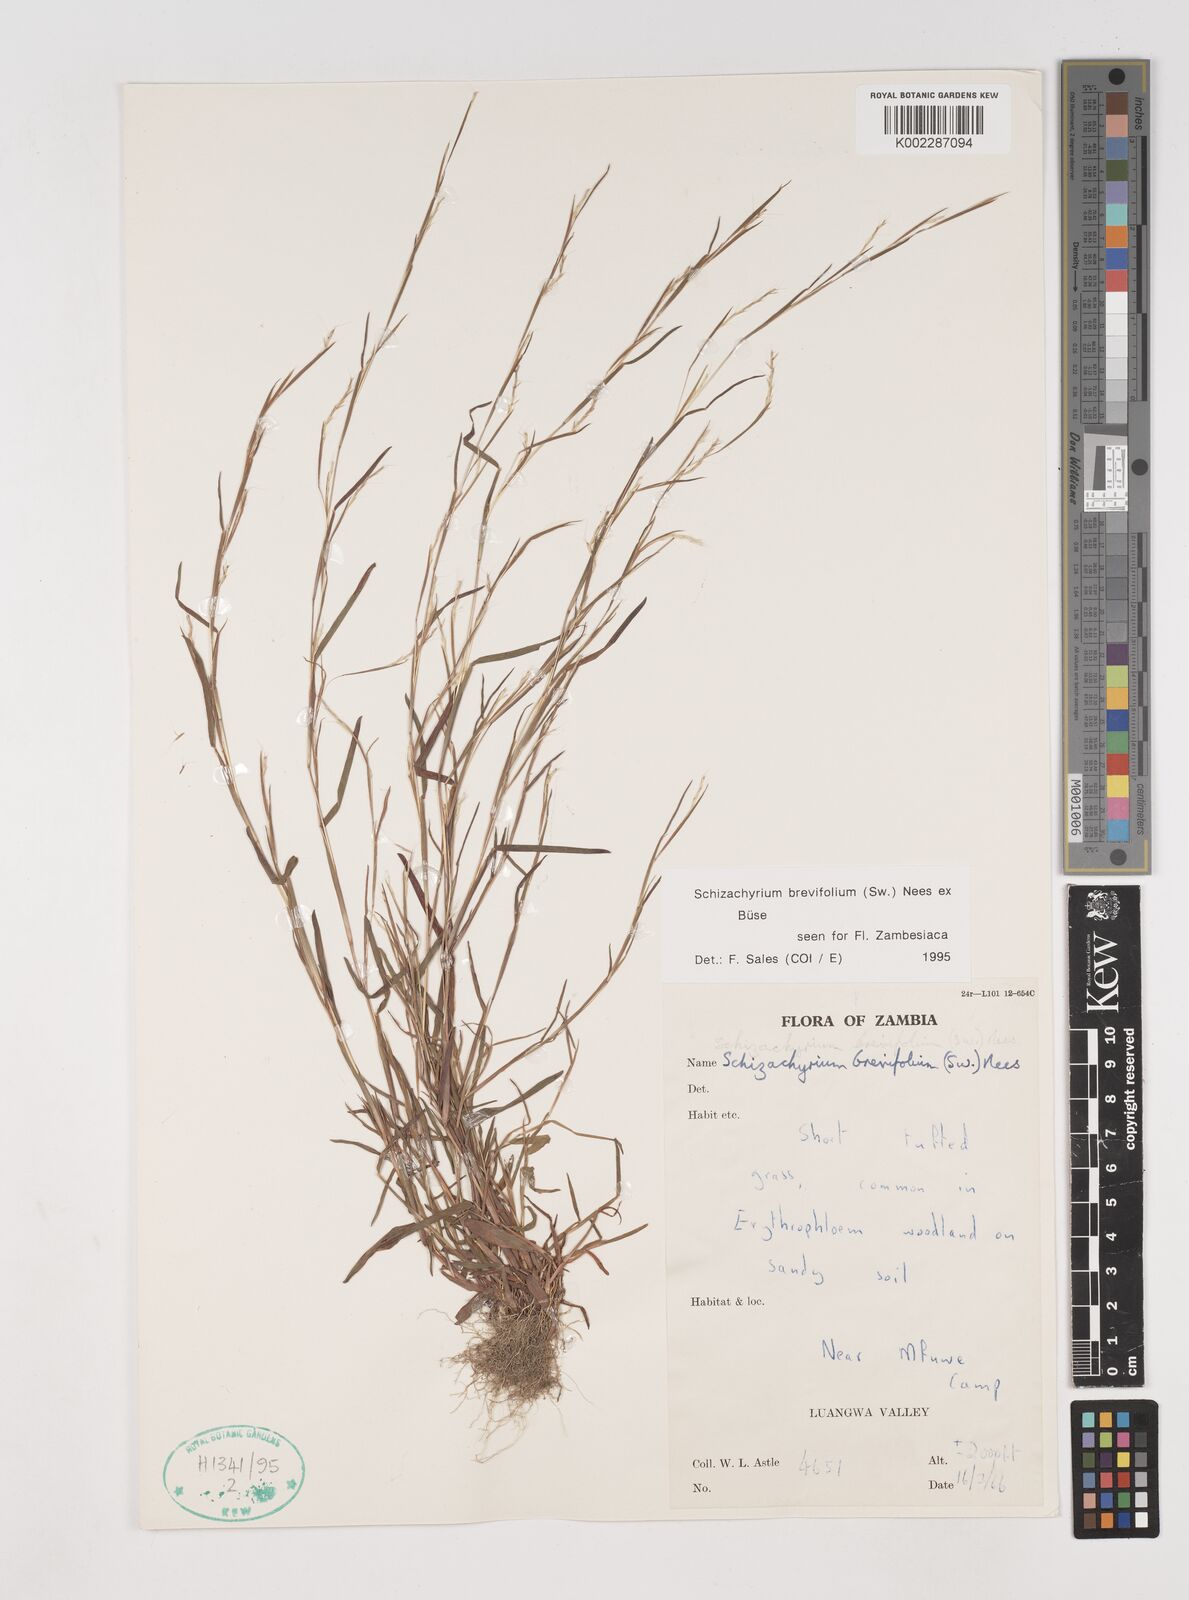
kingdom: Plantae
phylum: Tracheophyta
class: Liliopsida
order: Poales
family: Poaceae
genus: Schizachyrium
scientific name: Schizachyrium brevifolium
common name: Serillo dulce
